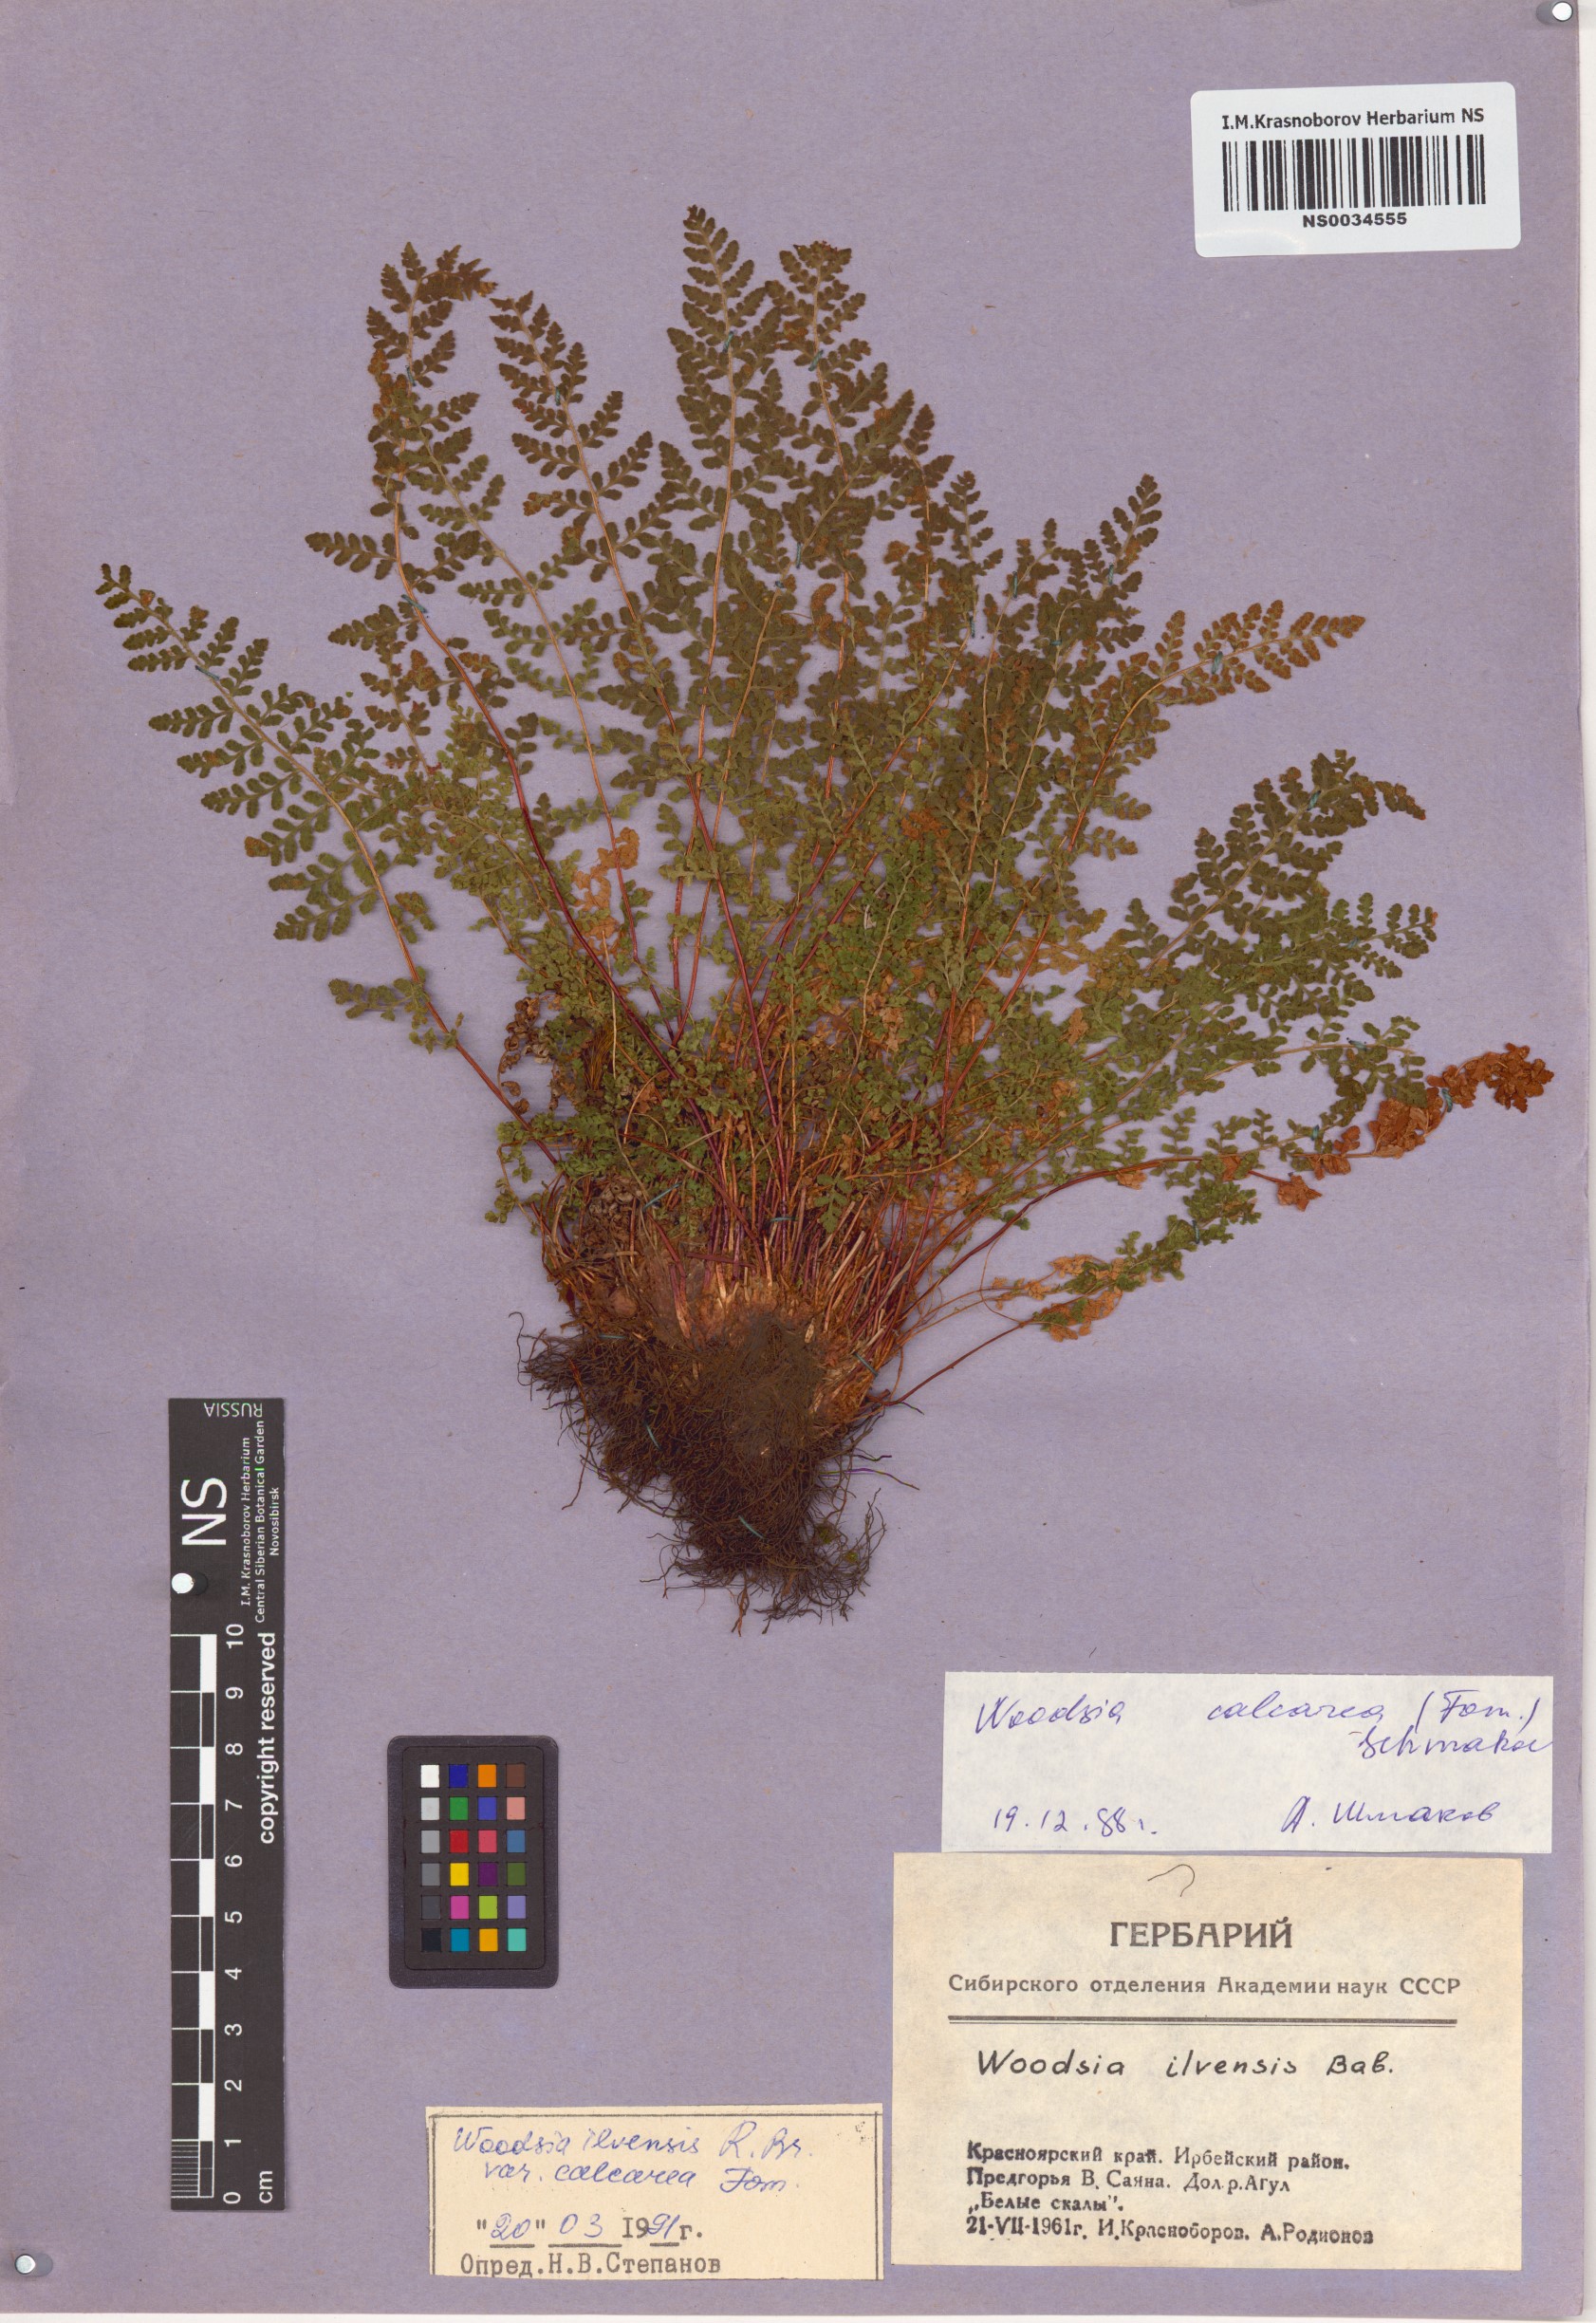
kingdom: Plantae
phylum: Tracheophyta
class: Polypodiopsida
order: Polypodiales
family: Woodsiaceae
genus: Woodsia
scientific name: Woodsia calcarea
